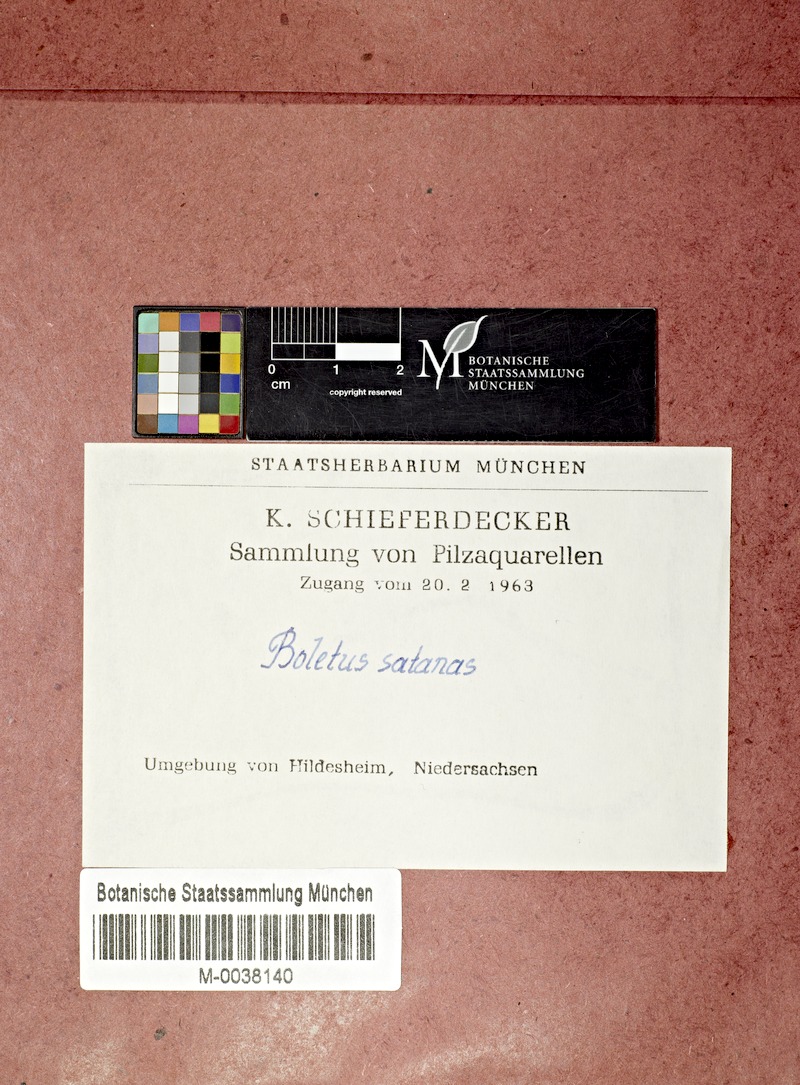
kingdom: Fungi
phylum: Basidiomycota
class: Agaricomycetes
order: Boletales
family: Boletaceae
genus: Rubroboletus
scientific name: Rubroboletus satanas
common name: Devil's bolete
